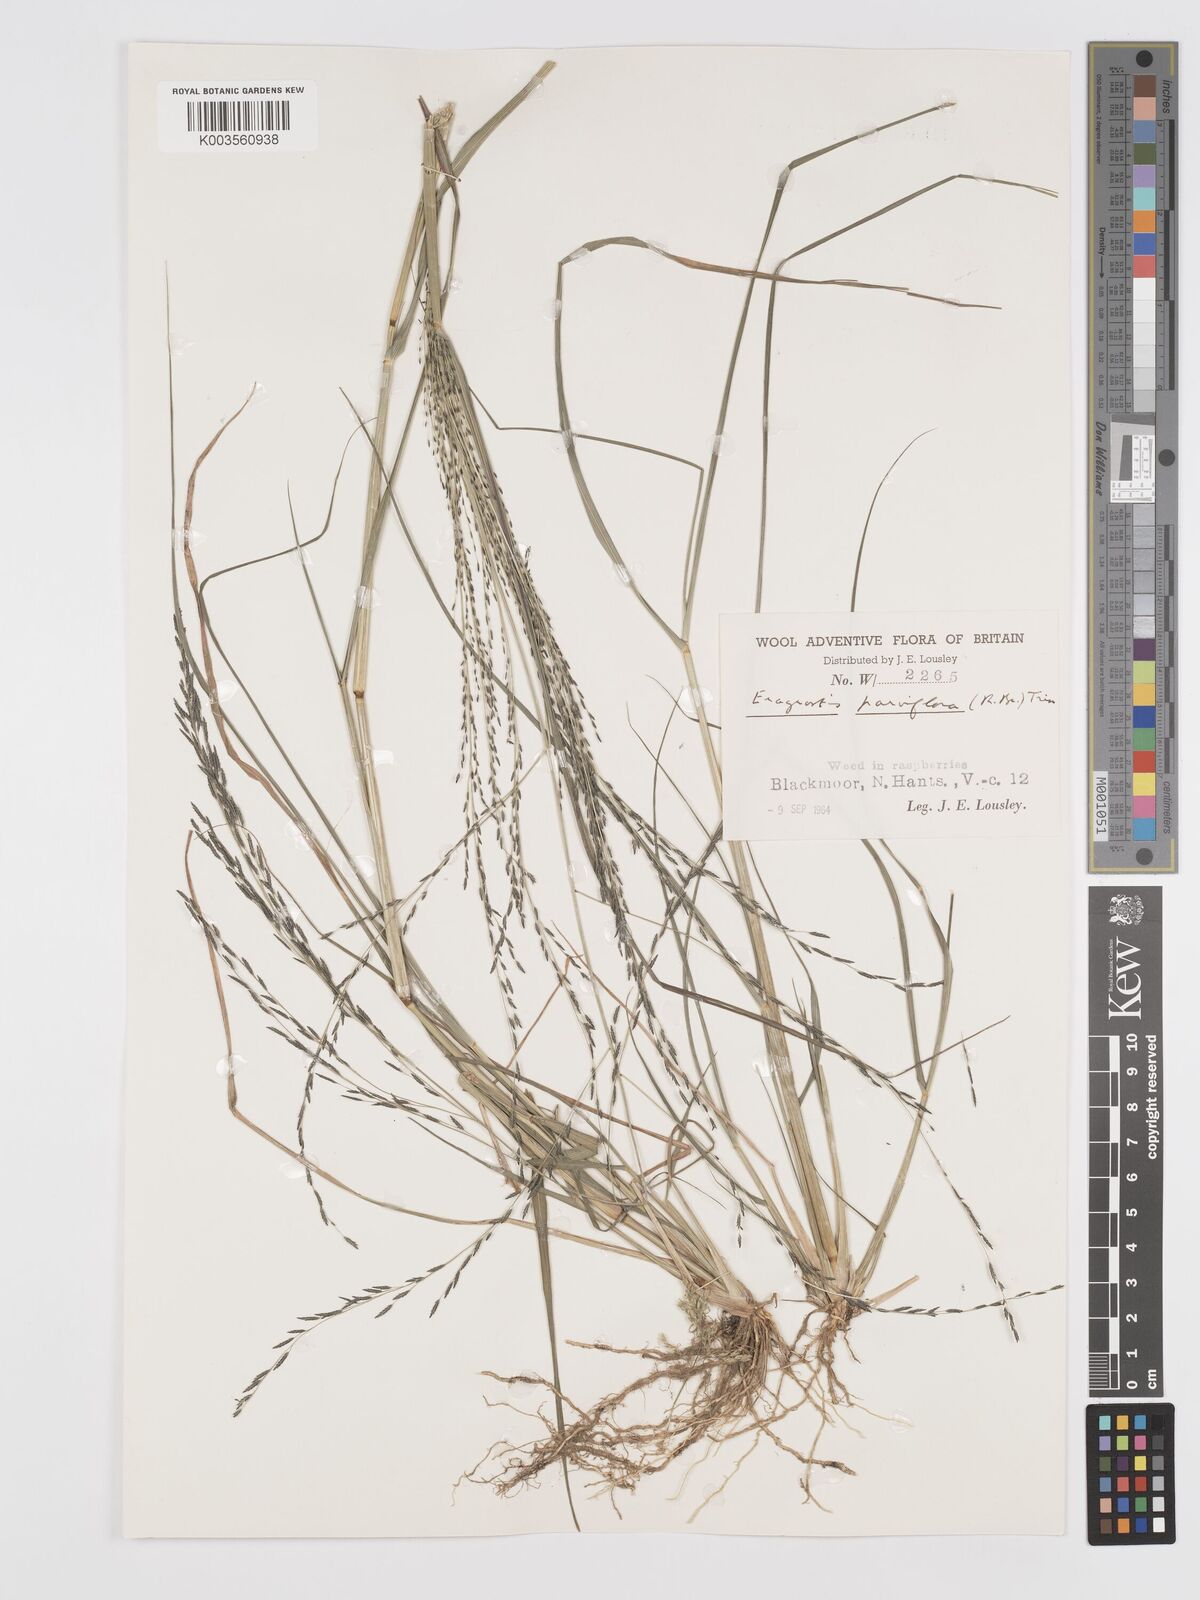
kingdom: Plantae
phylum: Tracheophyta
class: Liliopsida
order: Poales
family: Poaceae
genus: Eragrostis
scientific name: Eragrostis parviflora
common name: Weeping love-grass
